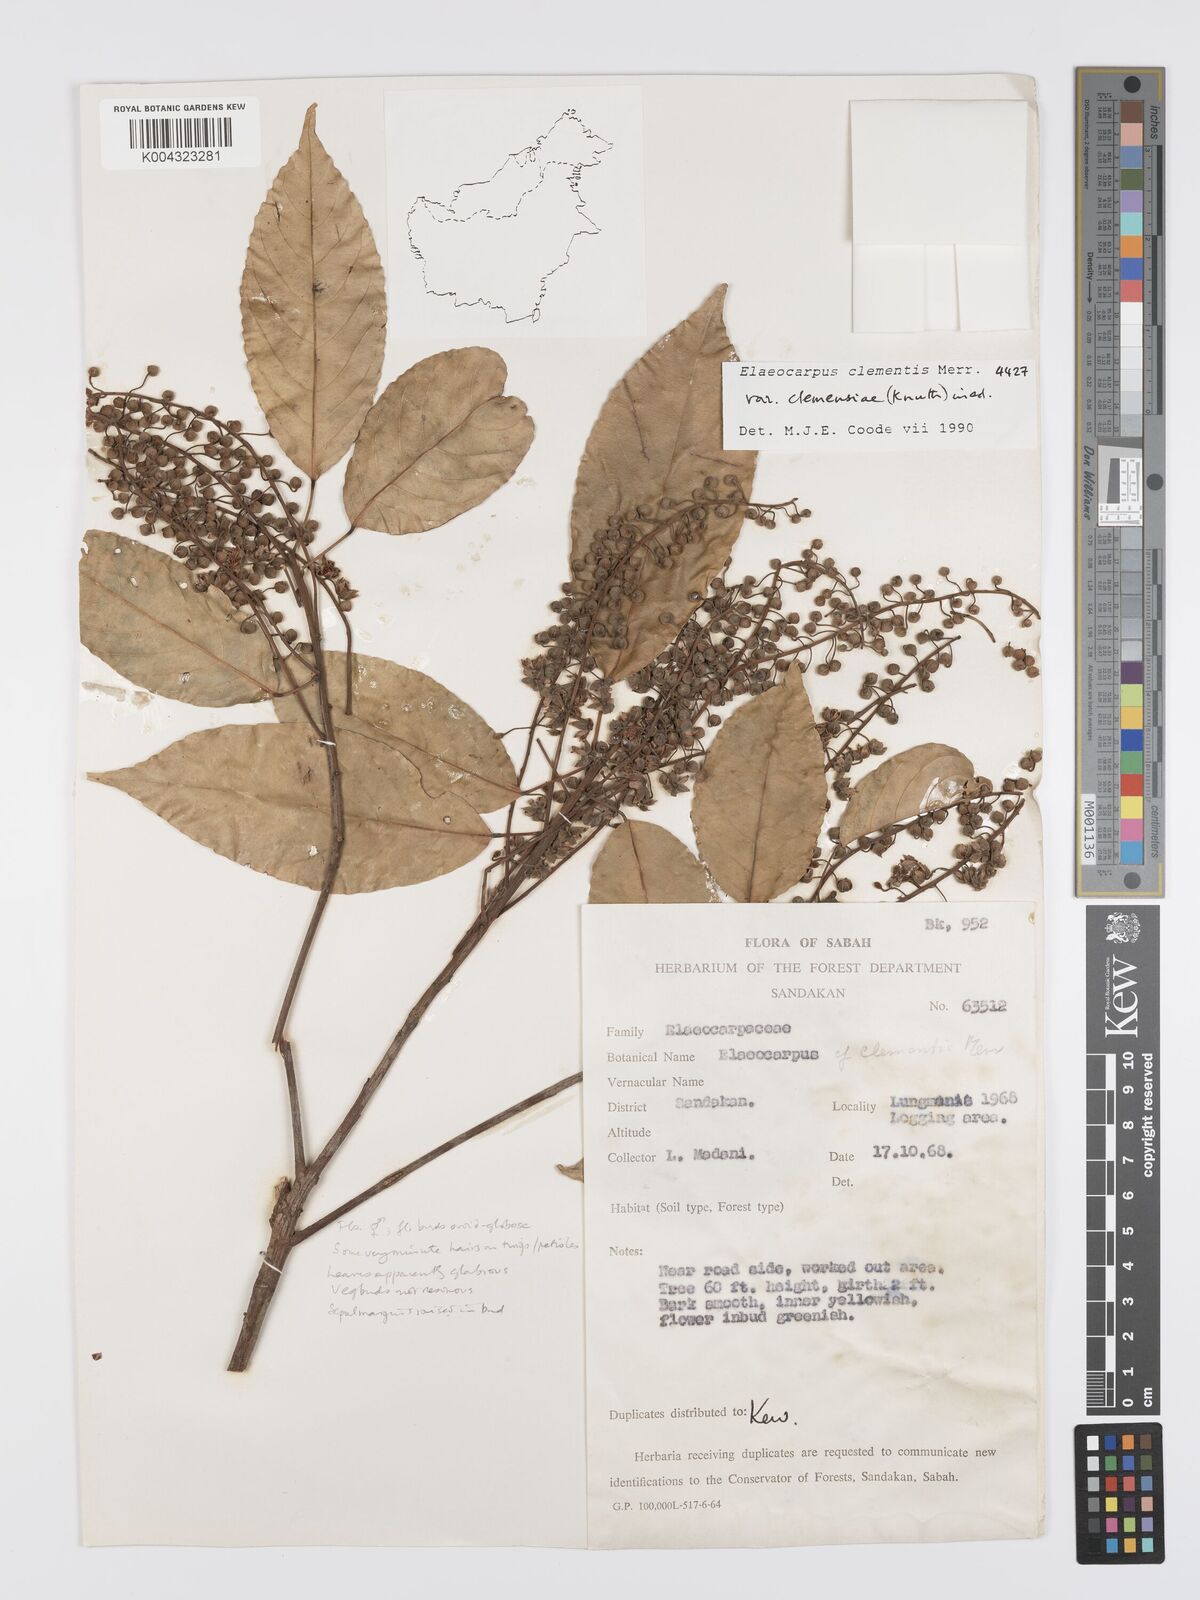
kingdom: Plantae
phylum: Tracheophyta
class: Magnoliopsida
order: Oxalidales
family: Elaeocarpaceae
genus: Elaeocarpus
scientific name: Elaeocarpus clementis
